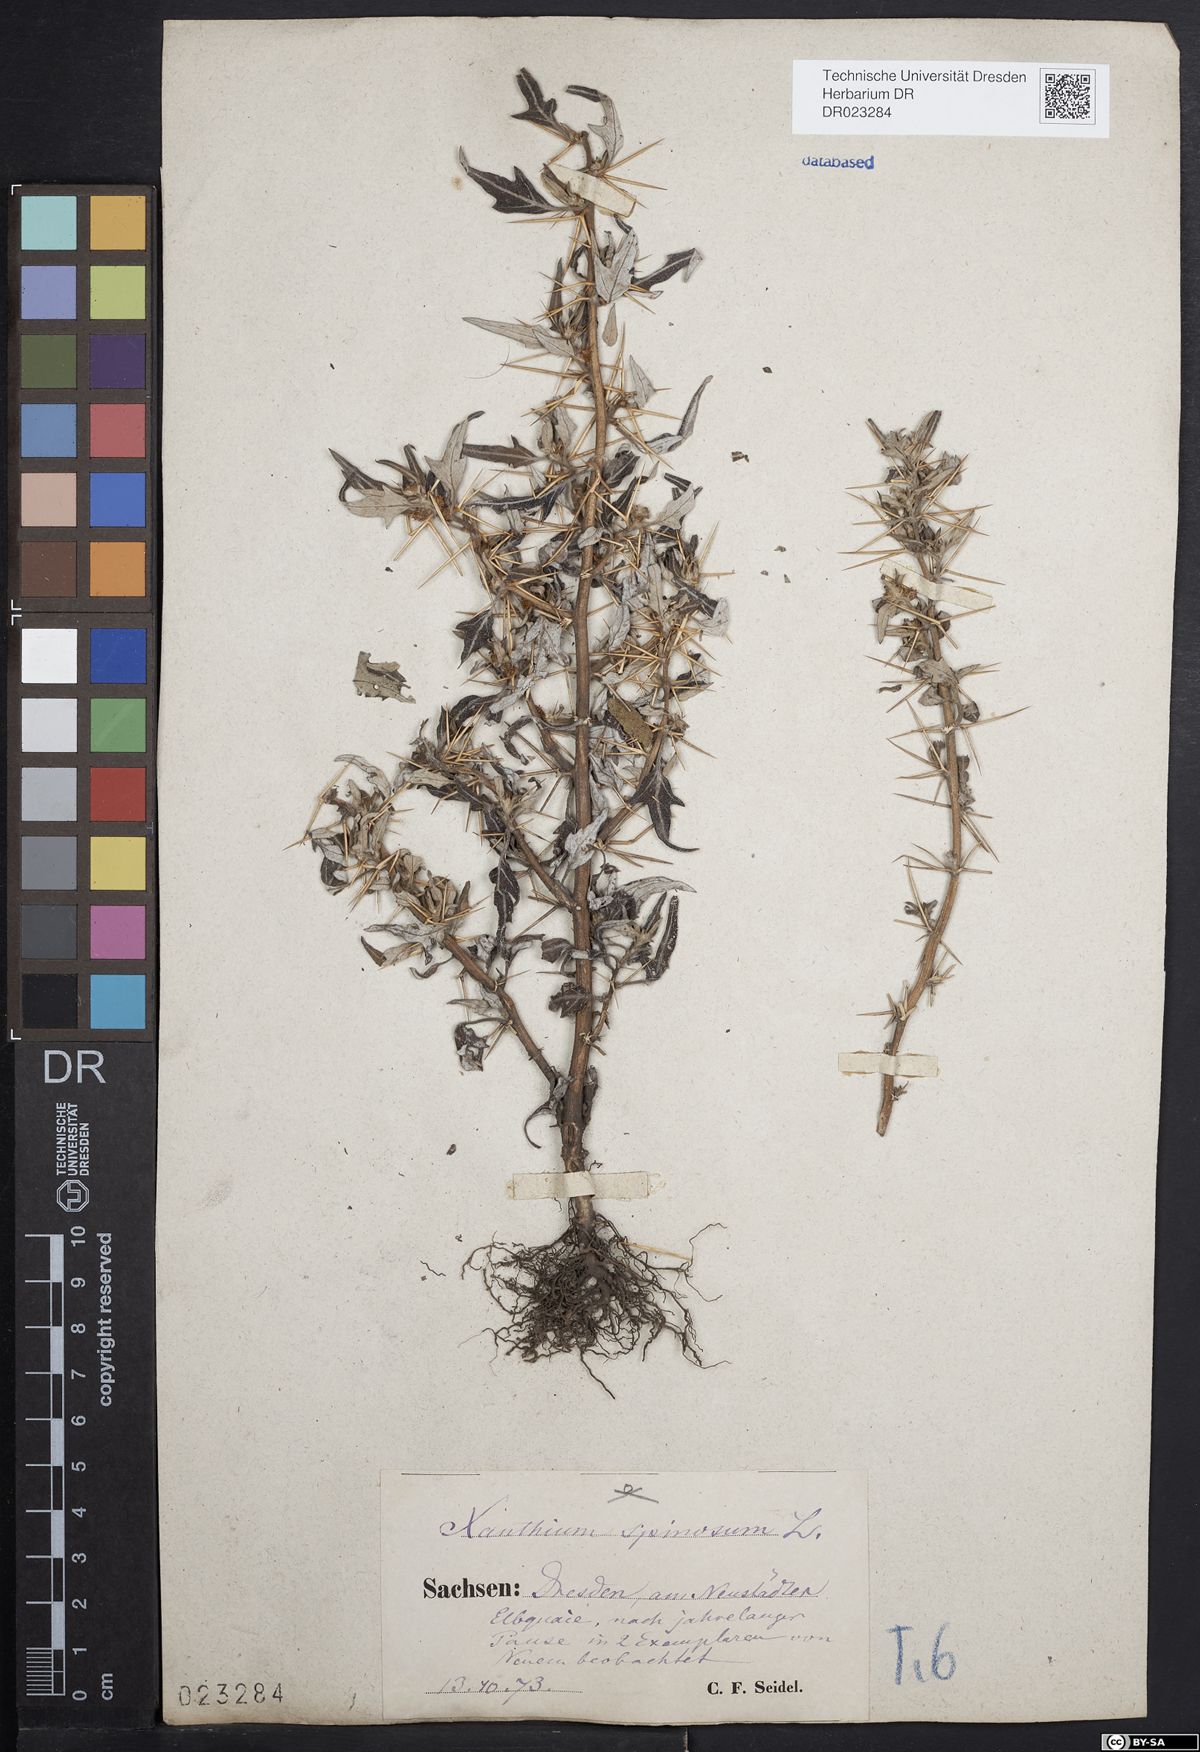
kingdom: Plantae
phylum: Tracheophyta
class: Magnoliopsida
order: Asterales
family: Asteraceae
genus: Xanthium
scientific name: Xanthium spinosum
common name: Spiny cocklebur
